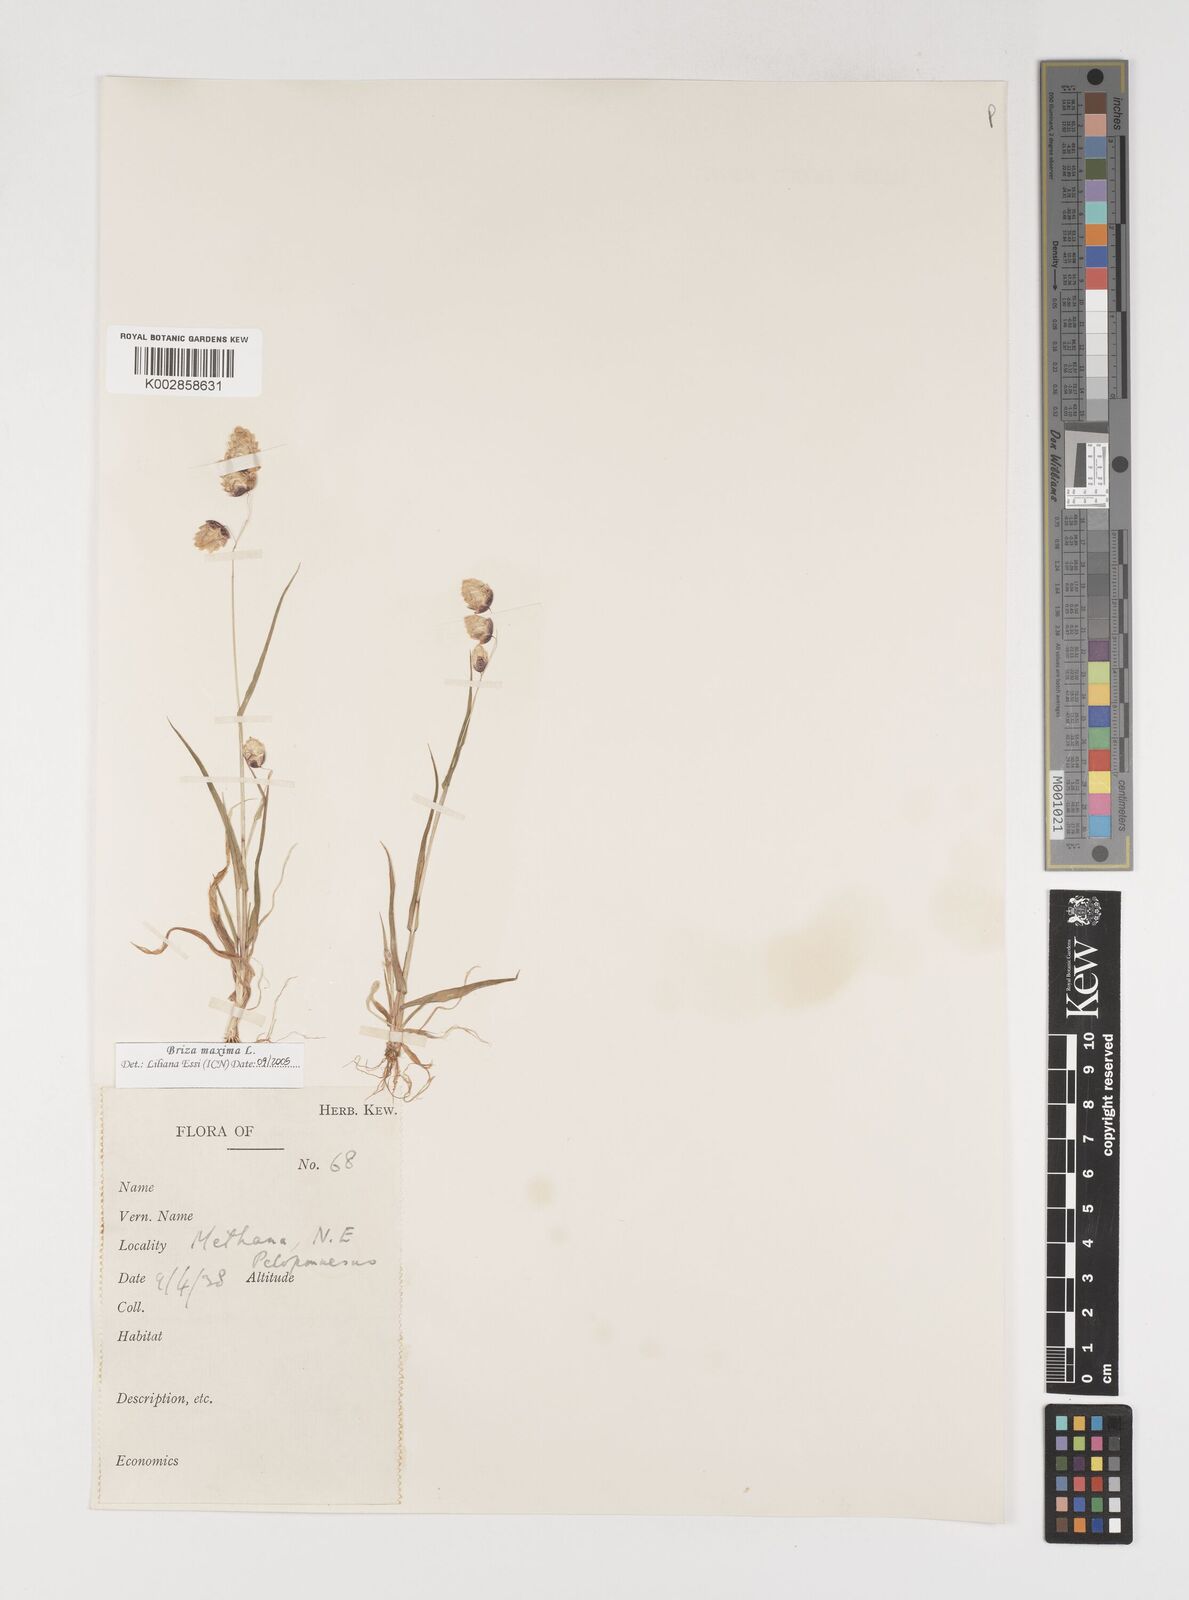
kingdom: Plantae
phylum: Tracheophyta
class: Liliopsida
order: Poales
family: Poaceae
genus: Briza
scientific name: Briza maxima
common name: Big quakinggrass
